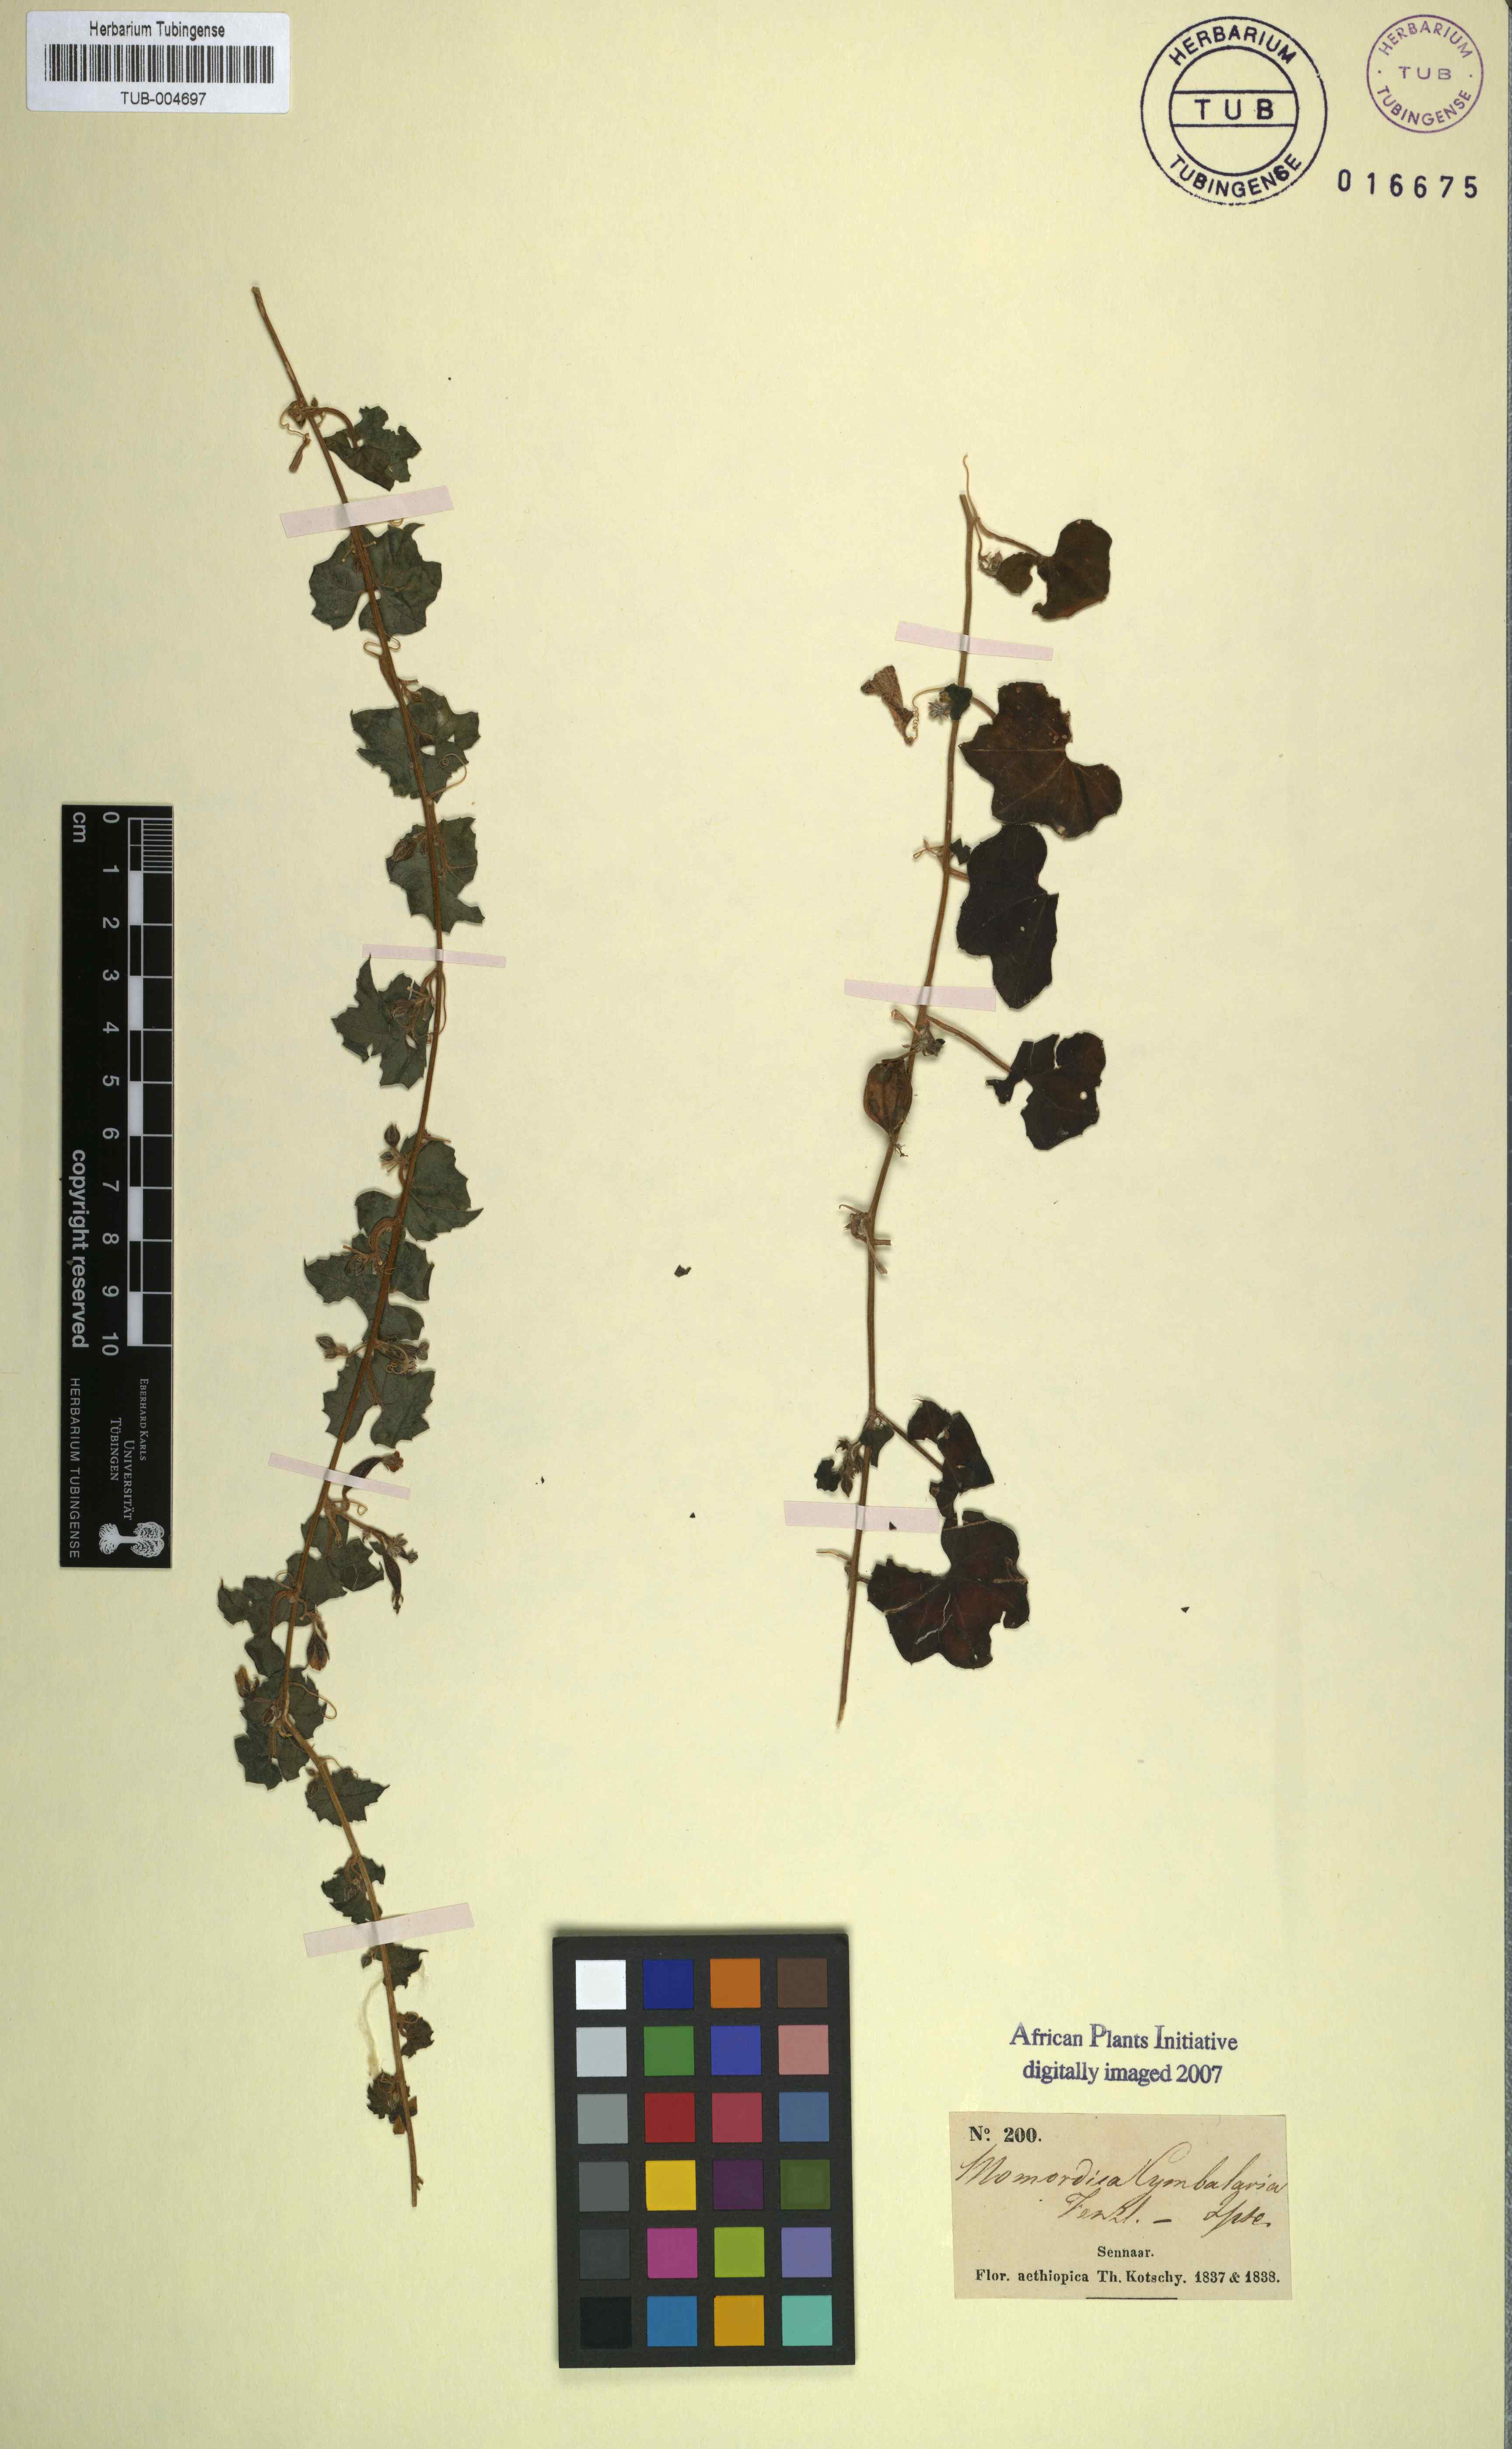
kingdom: Plantae
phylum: Tracheophyta
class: Magnoliopsida
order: Cucurbitales
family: Cucurbitaceae
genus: Momordica
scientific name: Momordica cymbalaria
